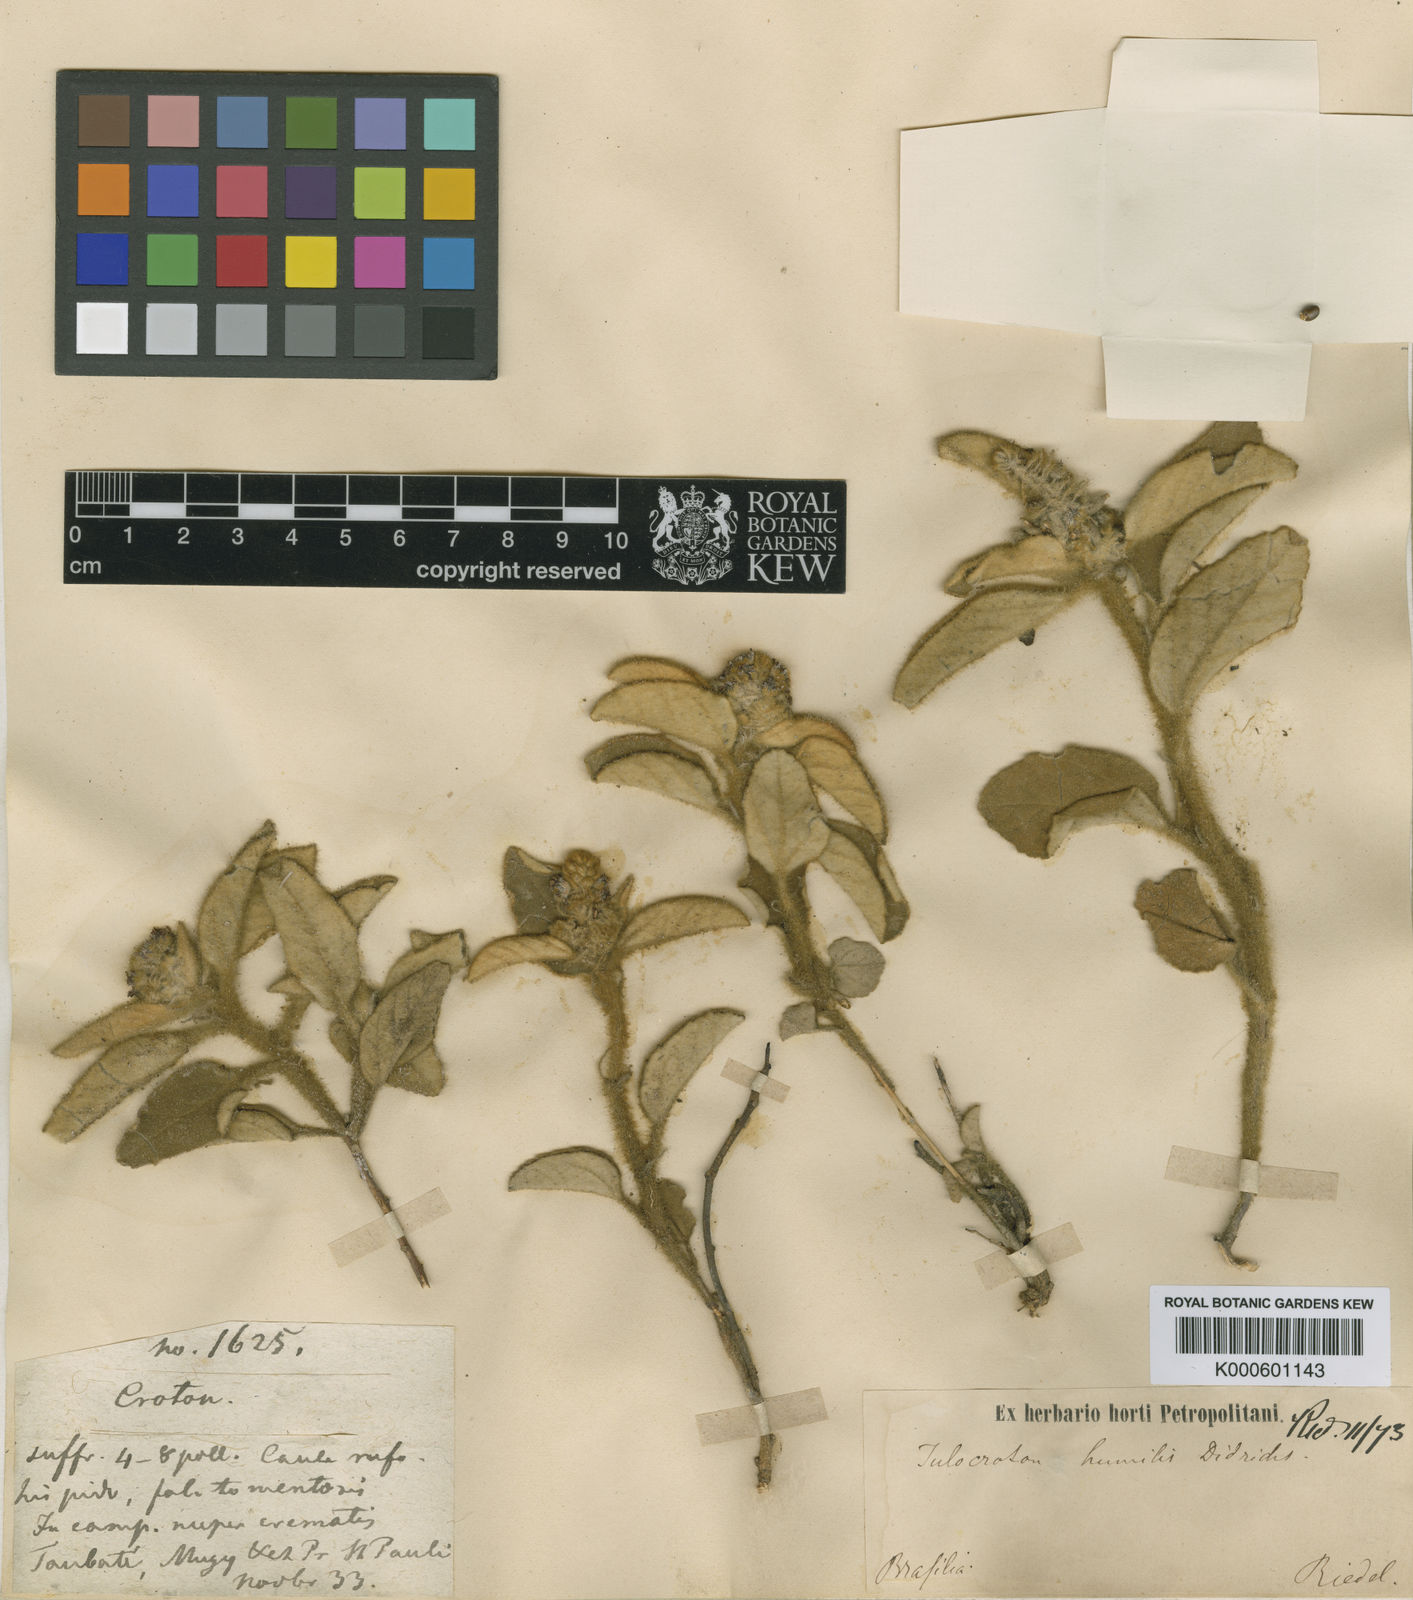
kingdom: Plantae
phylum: Tracheophyta
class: Magnoliopsida
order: Malpighiales
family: Euphorbiaceae
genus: Croton
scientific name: Croton solanaceus
